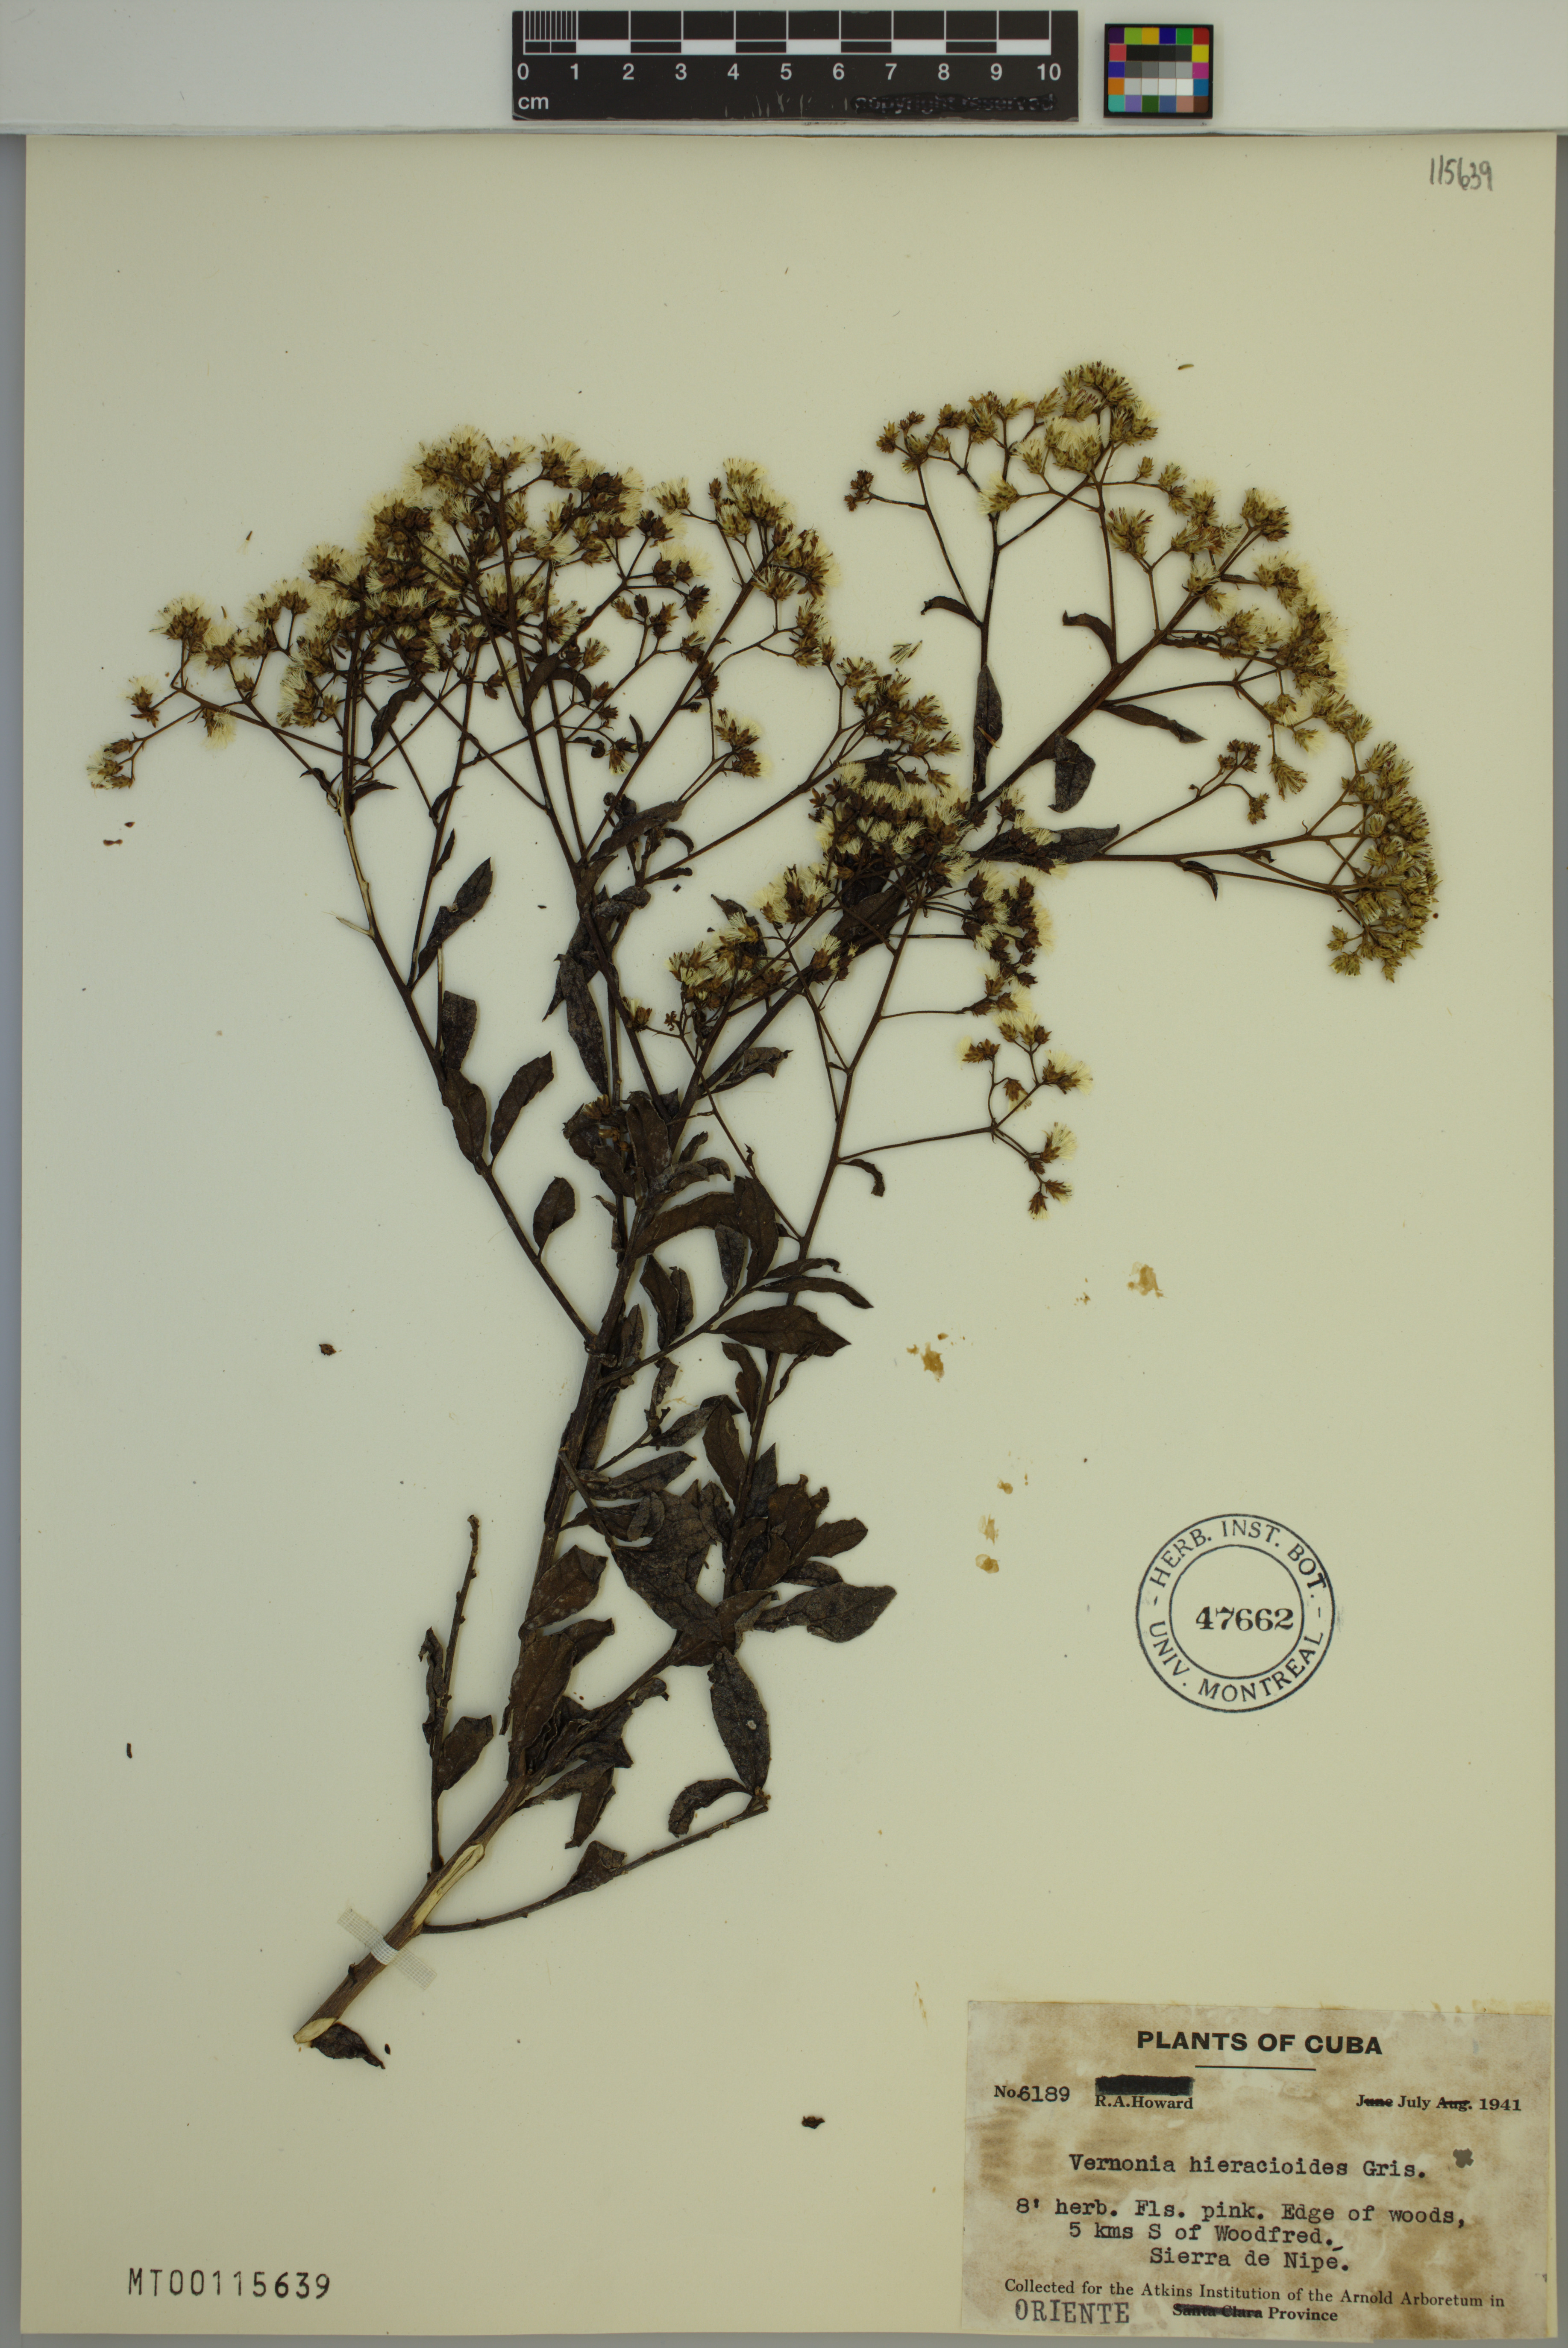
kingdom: Plantae
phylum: Tracheophyta
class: Magnoliopsida
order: Asterales
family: Asteraceae
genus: Vernonanthura
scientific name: Vernonanthura hieracioides
